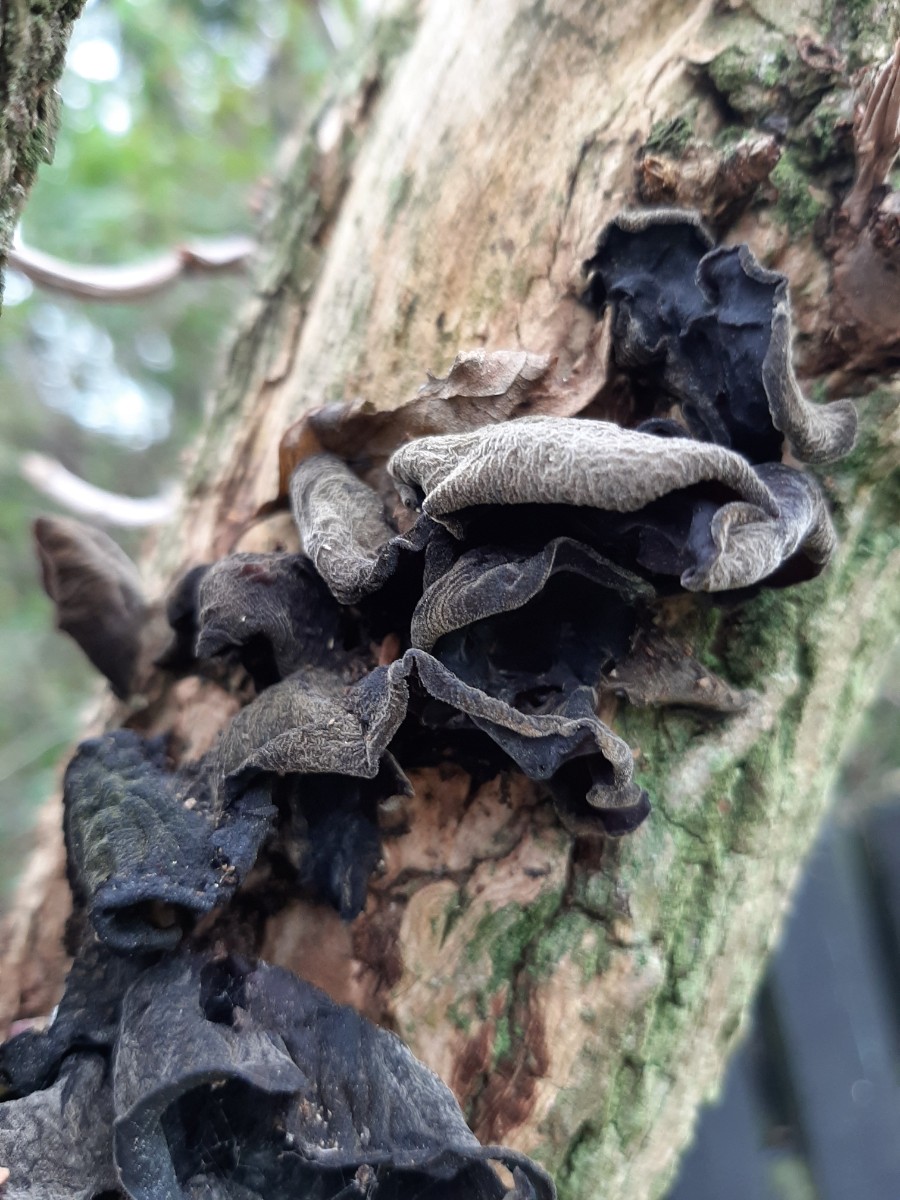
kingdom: Fungi
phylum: Basidiomycota
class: Agaricomycetes
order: Auriculariales
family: Auriculariaceae
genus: Auricularia
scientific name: Auricularia auricula-judae
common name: almindelig judasøre
